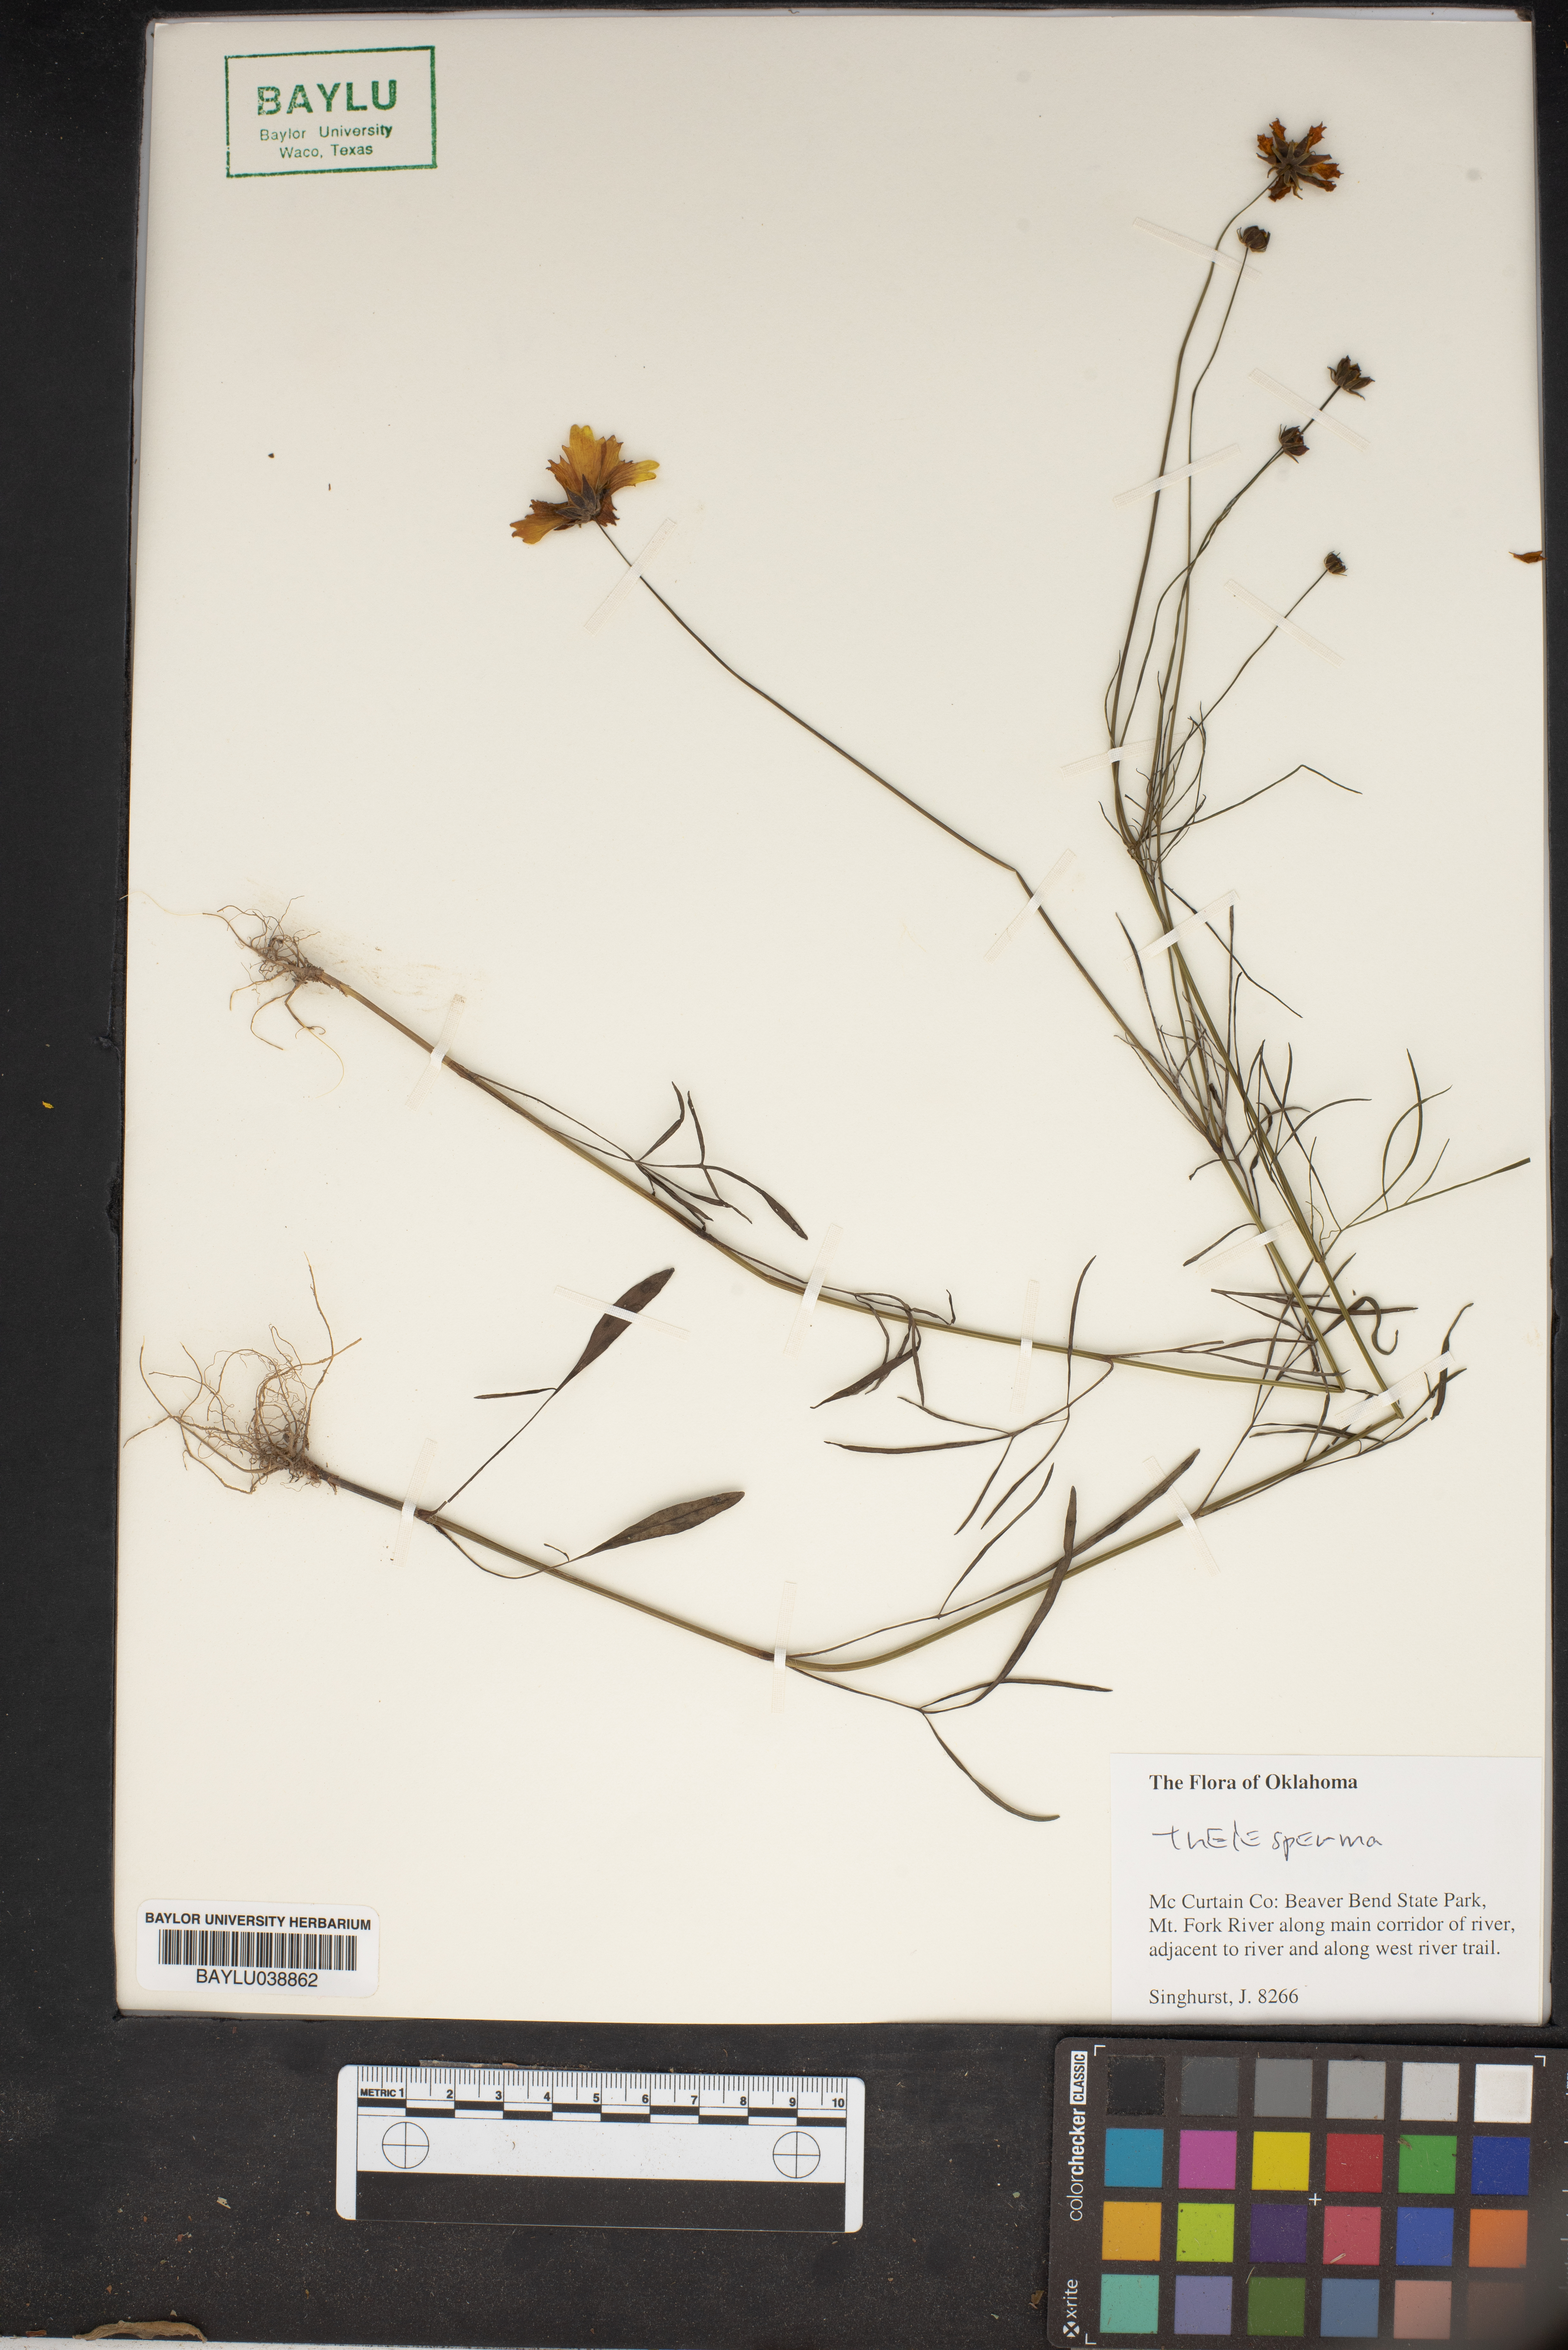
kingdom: Plantae
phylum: Tracheophyta
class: Magnoliopsida
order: Asterales
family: Asteraceae
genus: Thelesperma
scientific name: Thelesperma
